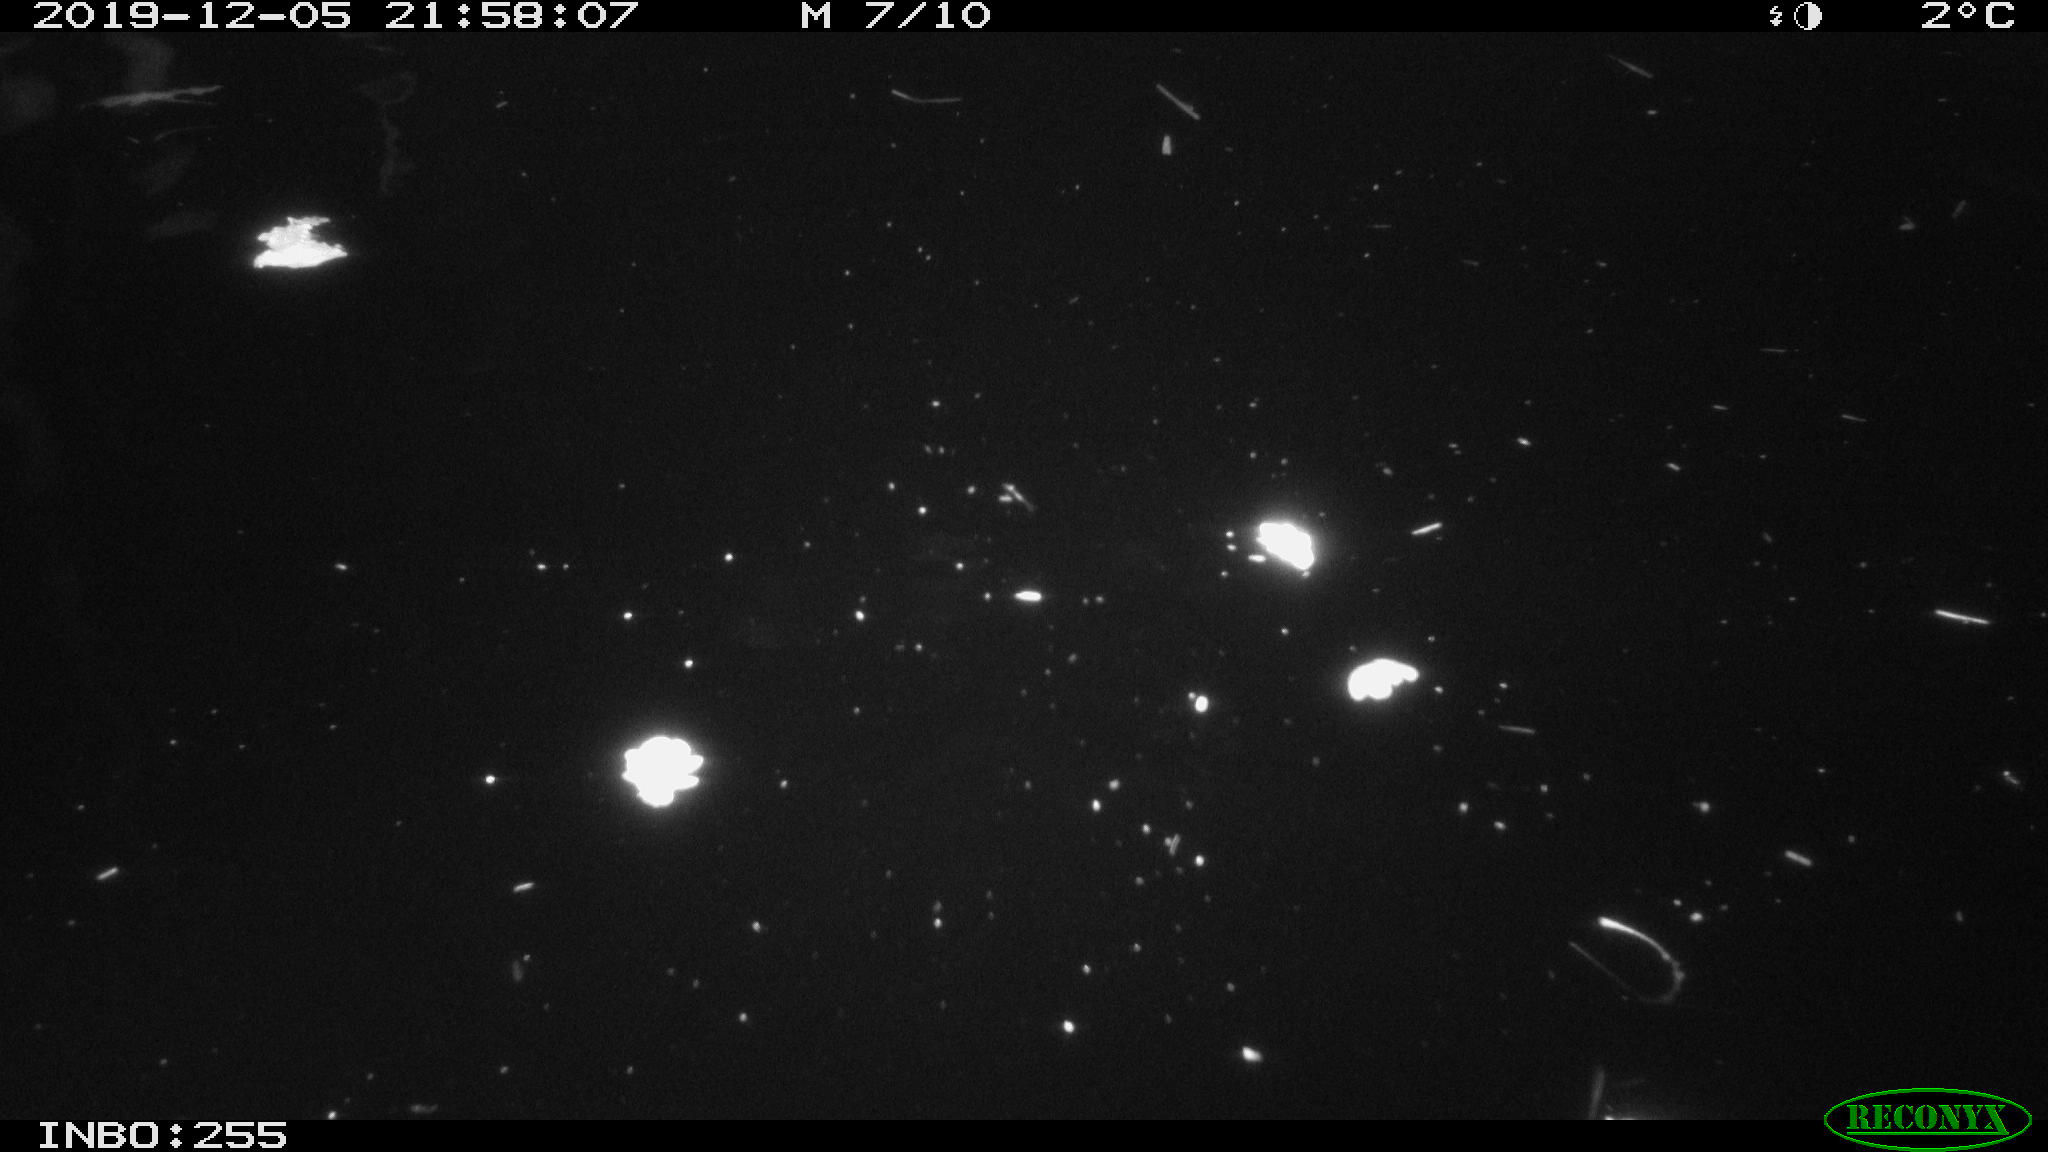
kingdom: Animalia
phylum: Chordata
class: Aves
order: Anseriformes
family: Anatidae
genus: Anas
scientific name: Anas platyrhynchos
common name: Mallard
